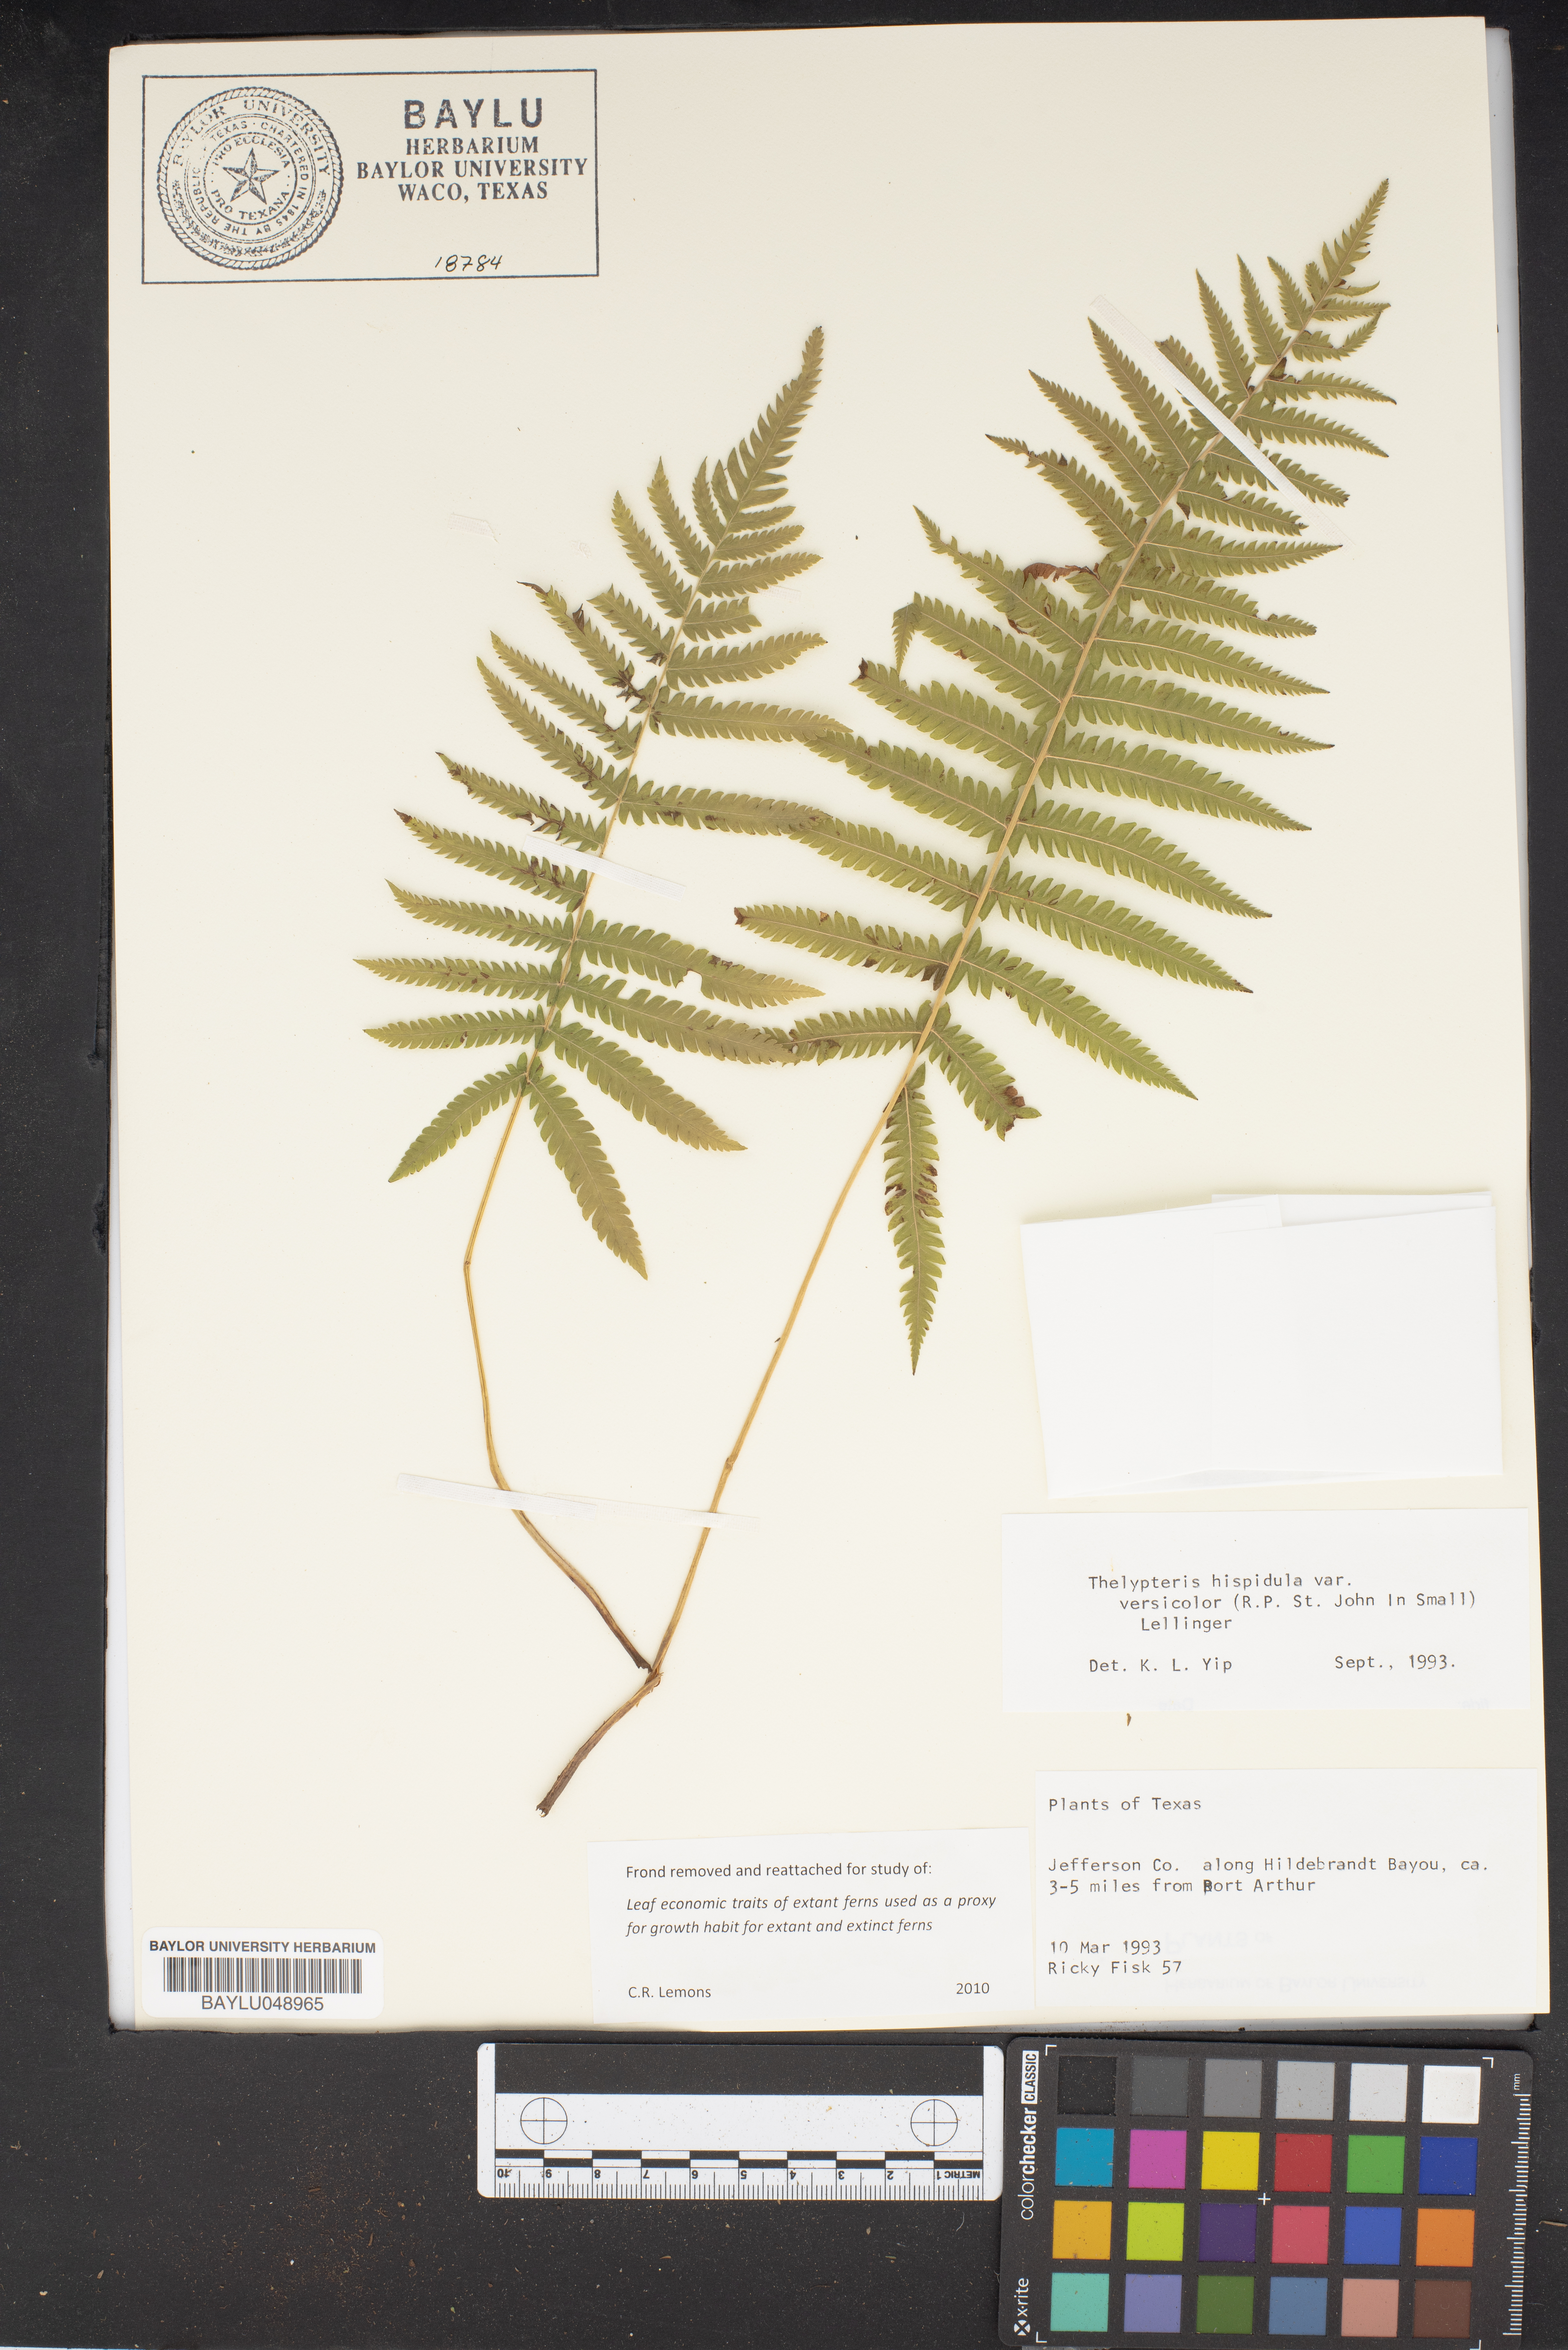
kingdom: Plantae
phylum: Tracheophyta
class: Polypodiopsida
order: Polypodiales
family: Thelypteridaceae
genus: Christella
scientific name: Christella hispidula
